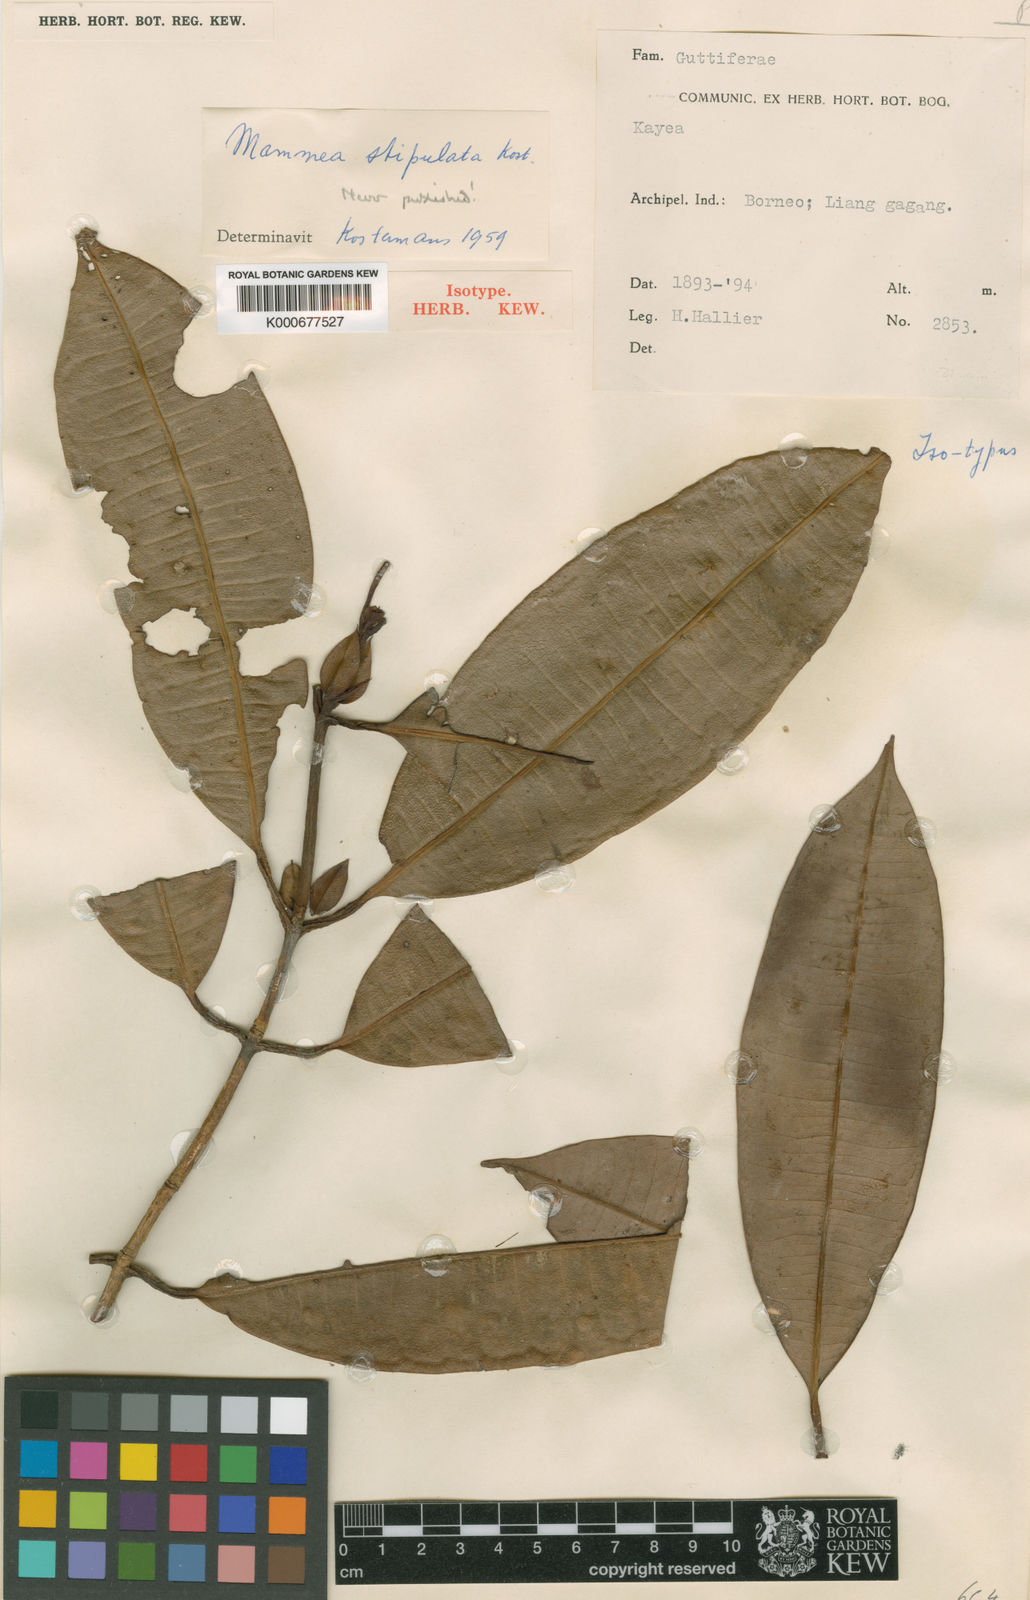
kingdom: Plantae
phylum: Tracheophyta
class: Magnoliopsida
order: Malpighiales
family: Calophyllaceae
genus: Mammea
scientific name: Mammea
